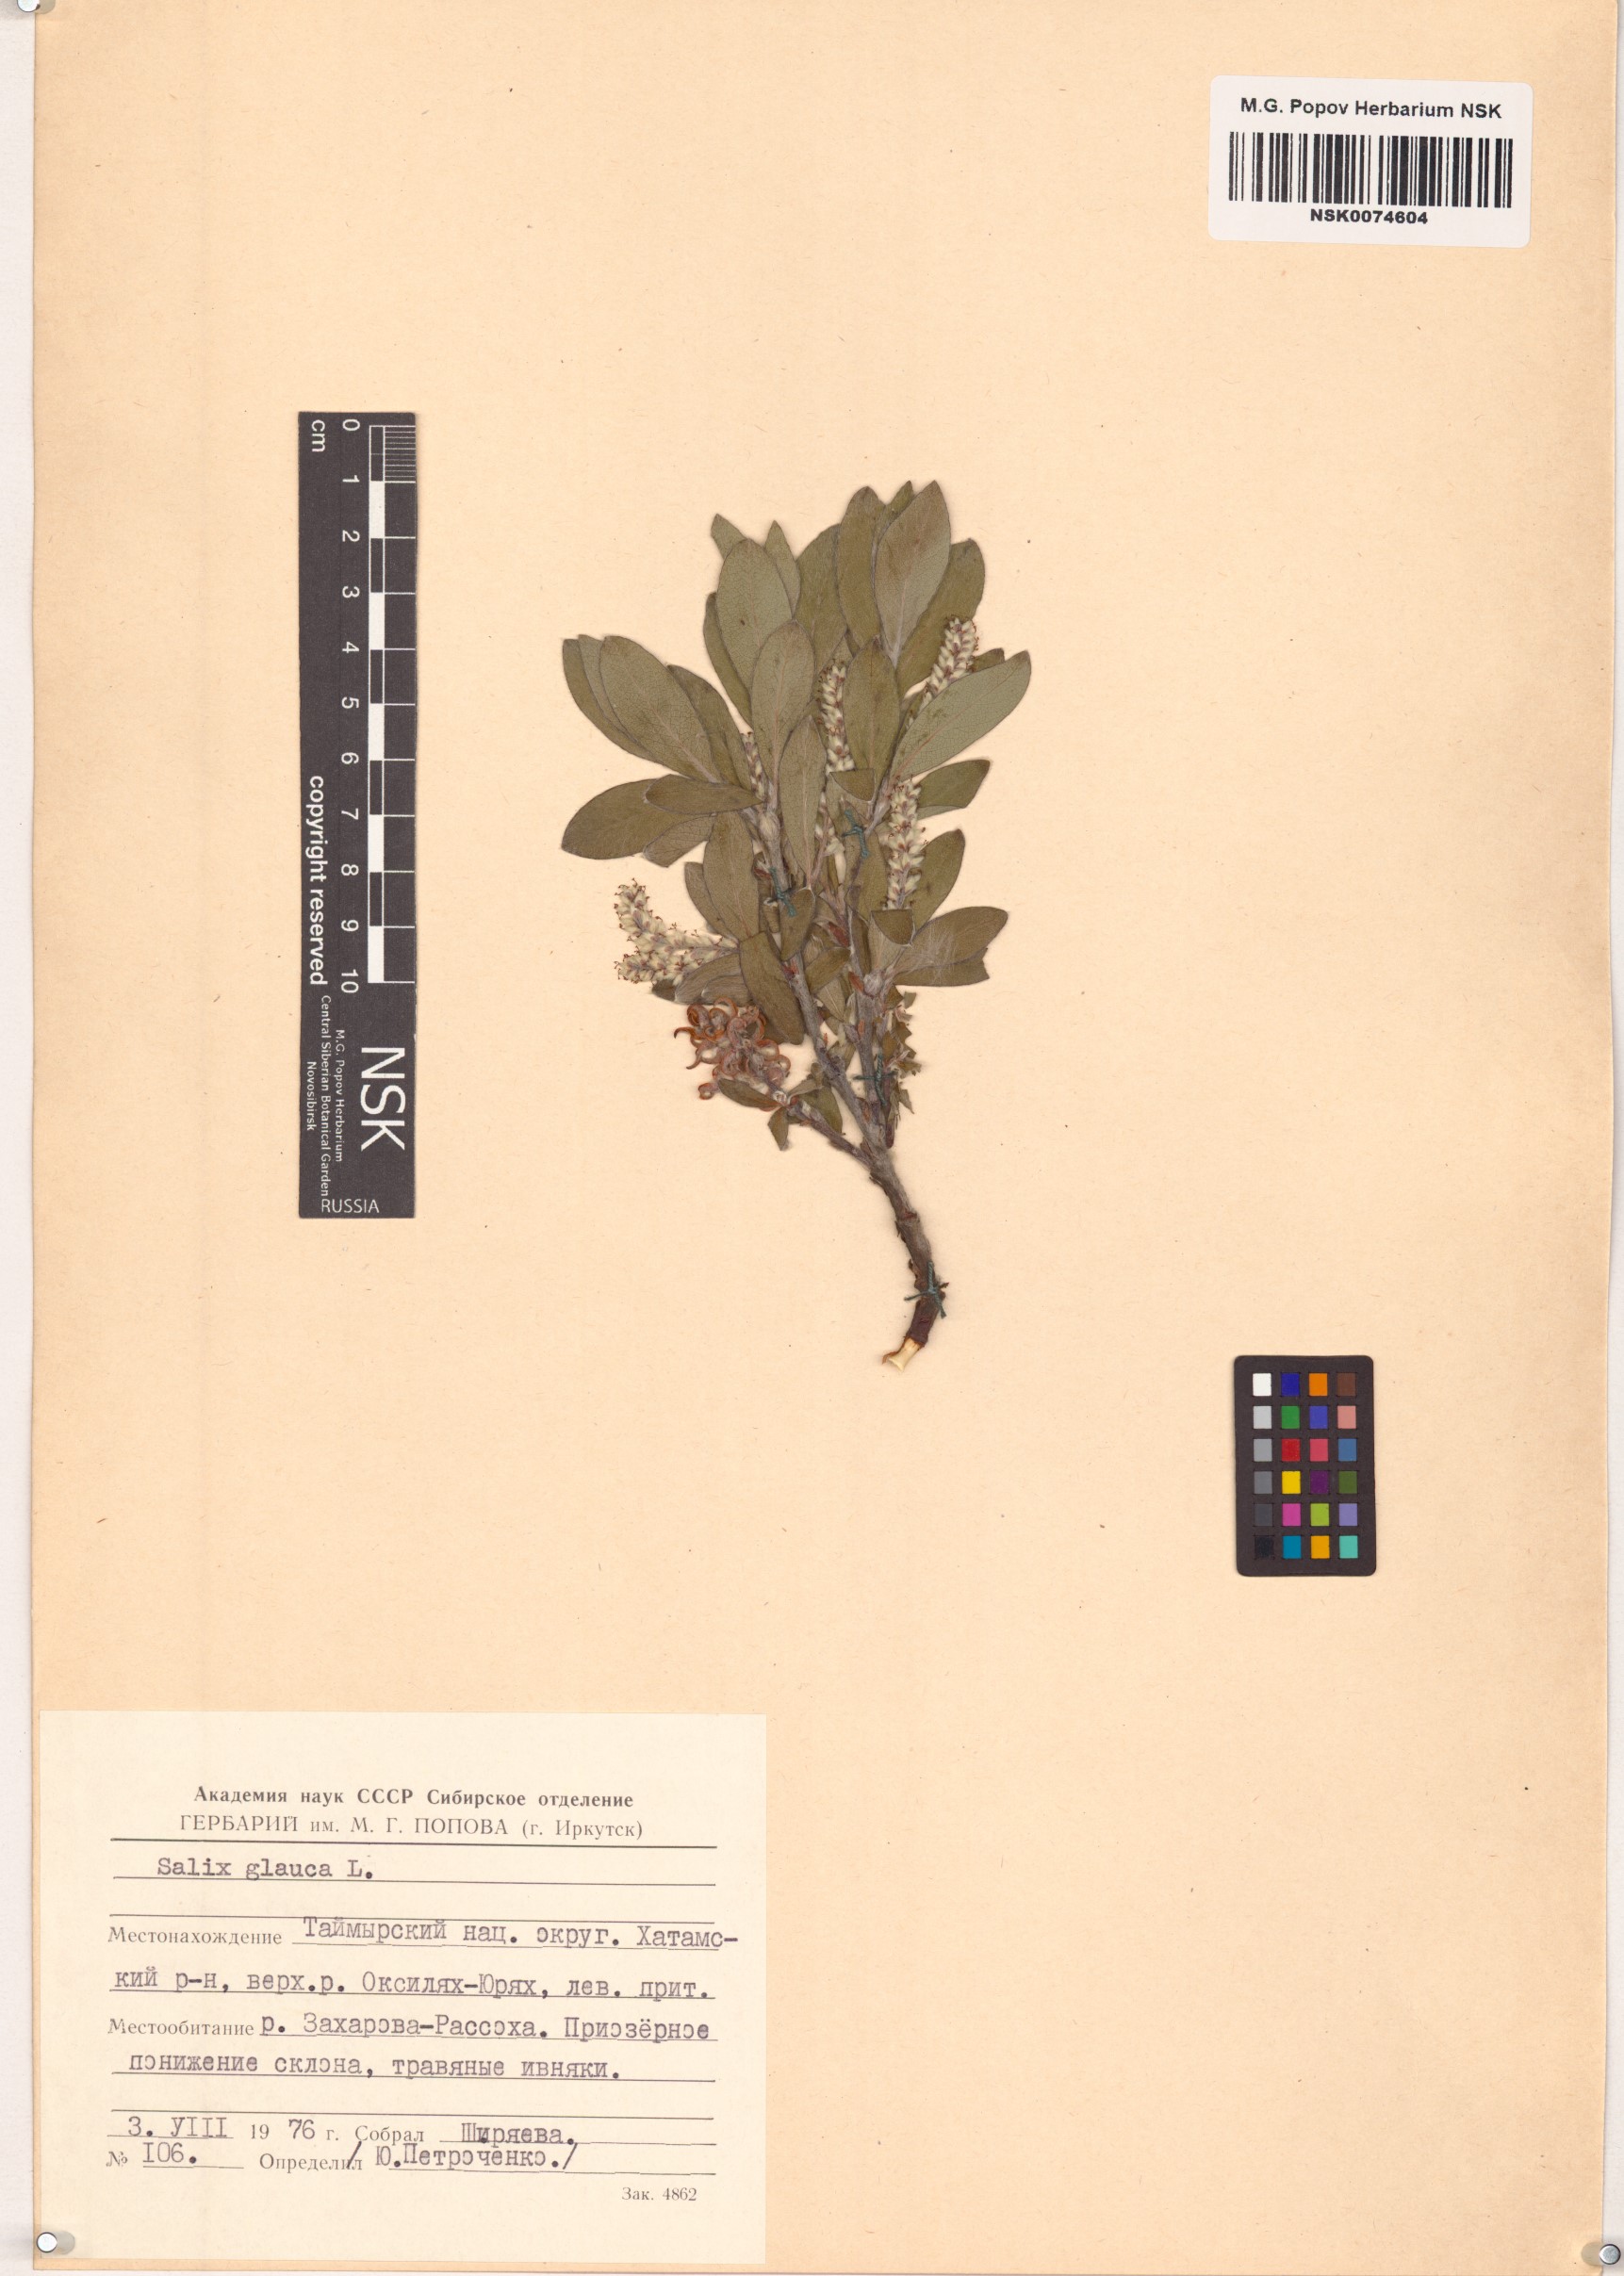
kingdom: Plantae
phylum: Tracheophyta
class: Magnoliopsida
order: Malpighiales
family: Salicaceae
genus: Salix
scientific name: Salix glauca
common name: Glaucous willow
